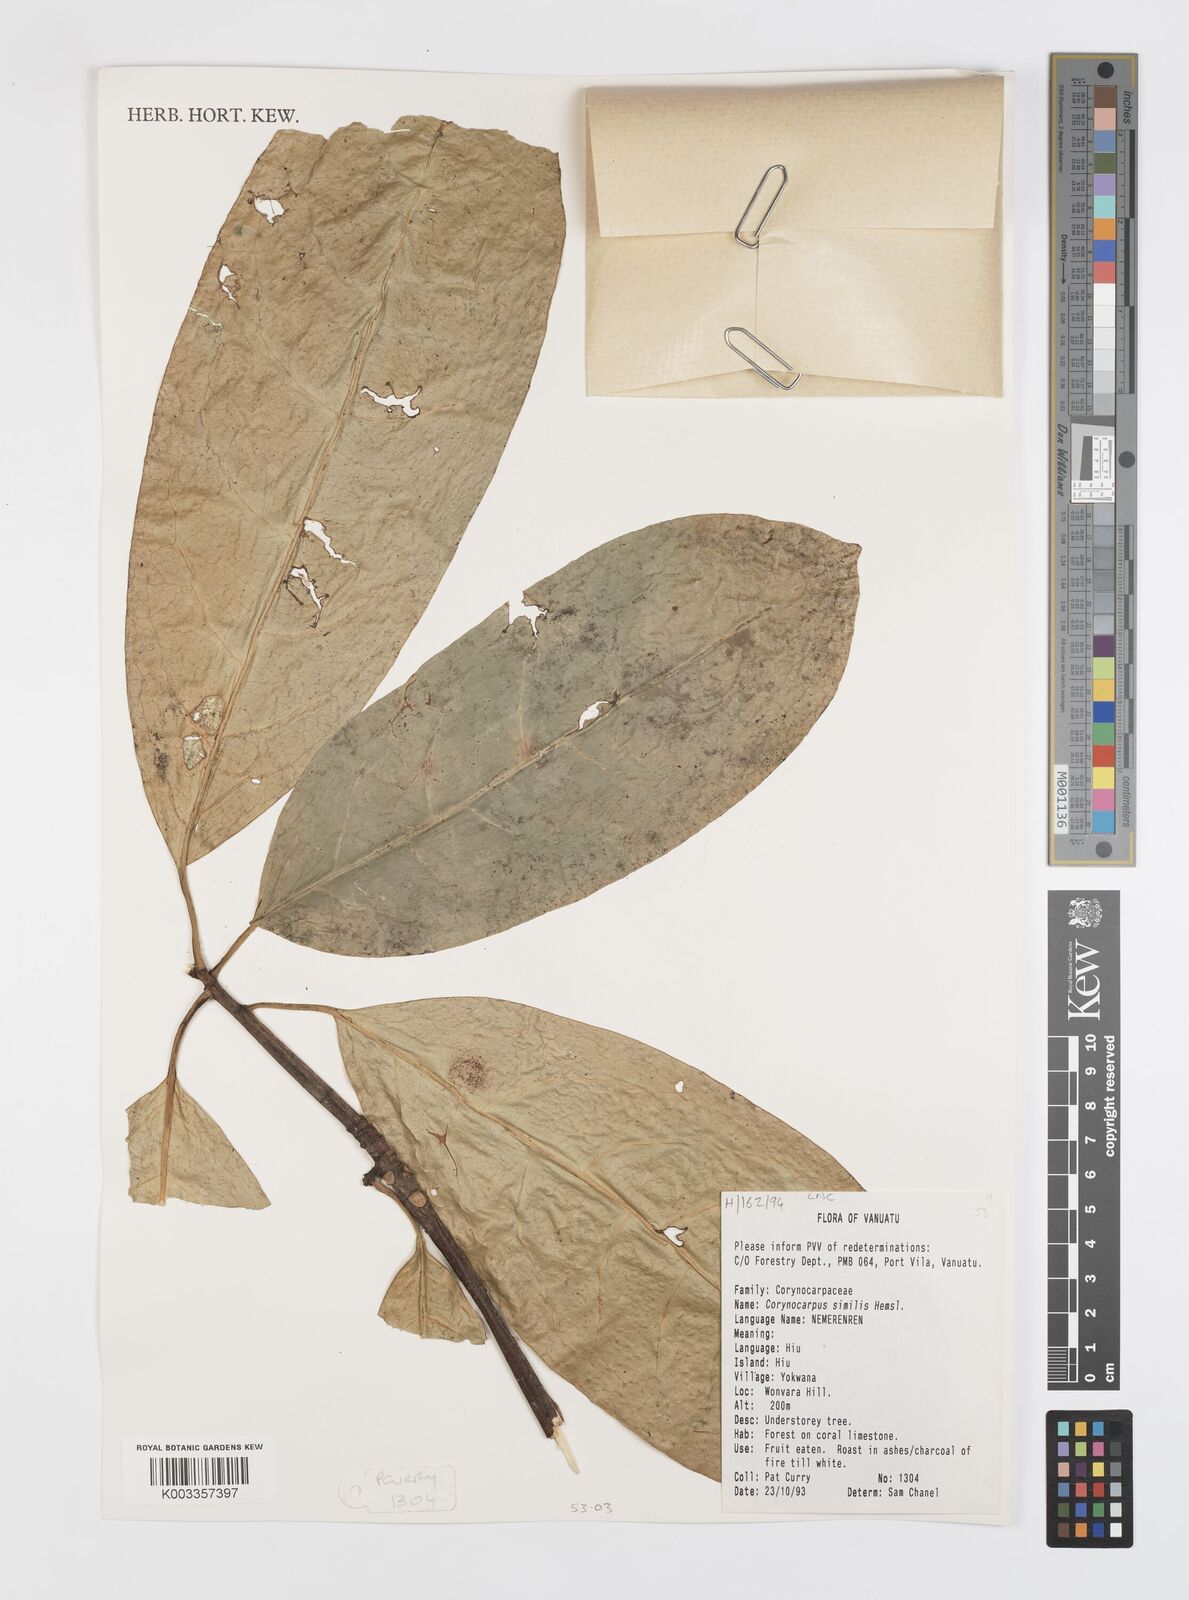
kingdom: Plantae
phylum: Tracheophyta
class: Magnoliopsida
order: Cucurbitales
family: Corynocarpaceae
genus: Corynocarpus
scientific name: Corynocarpus similis
